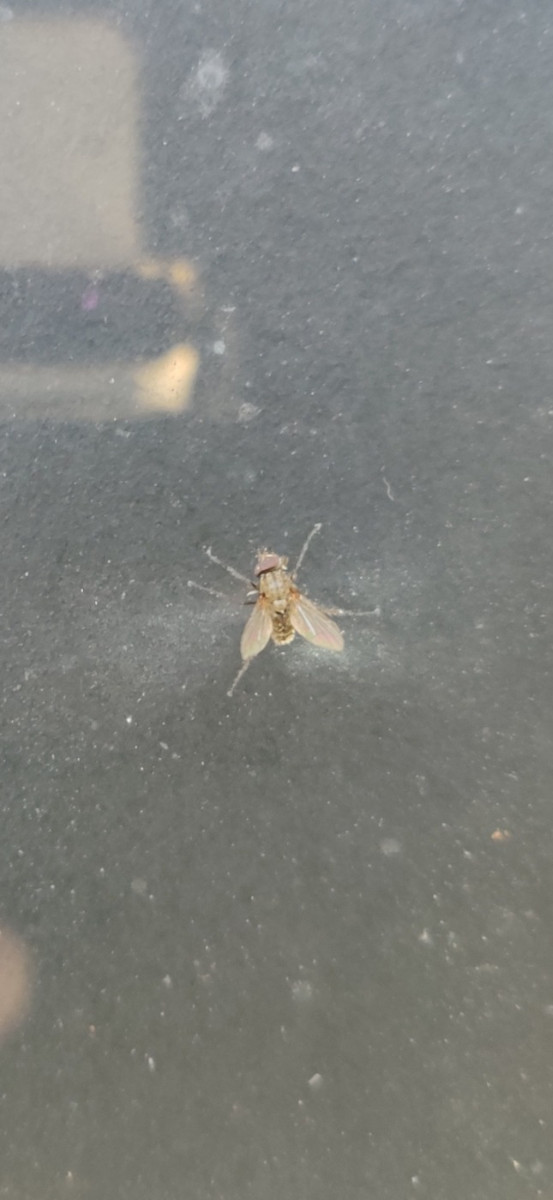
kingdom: Fungi
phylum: Entomophthoromycota
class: Entomophthoromycetes
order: Entomophthorales
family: Entomophthoraceae
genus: Entomophthora
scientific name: Entomophthora muscae
